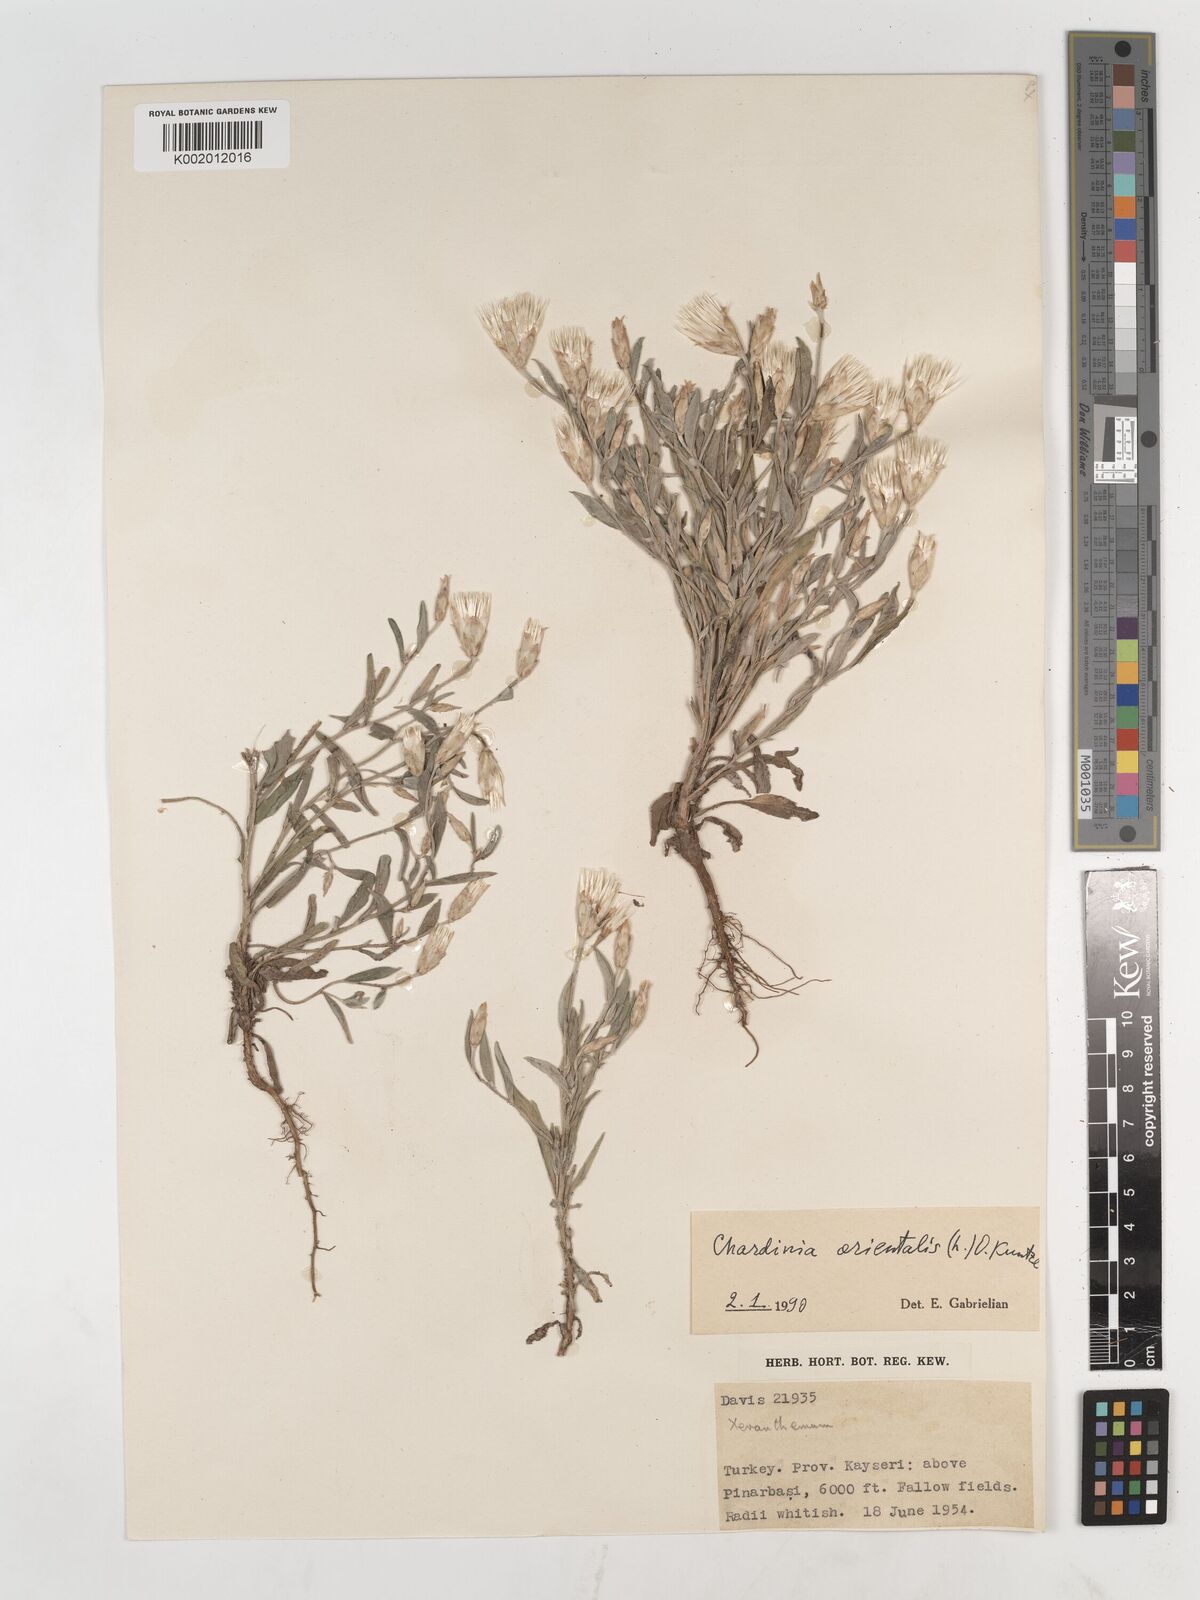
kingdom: Plantae
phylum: Tracheophyta
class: Magnoliopsida
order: Asterales
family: Asteraceae
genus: Chardinia
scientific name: Chardinia orientalis
